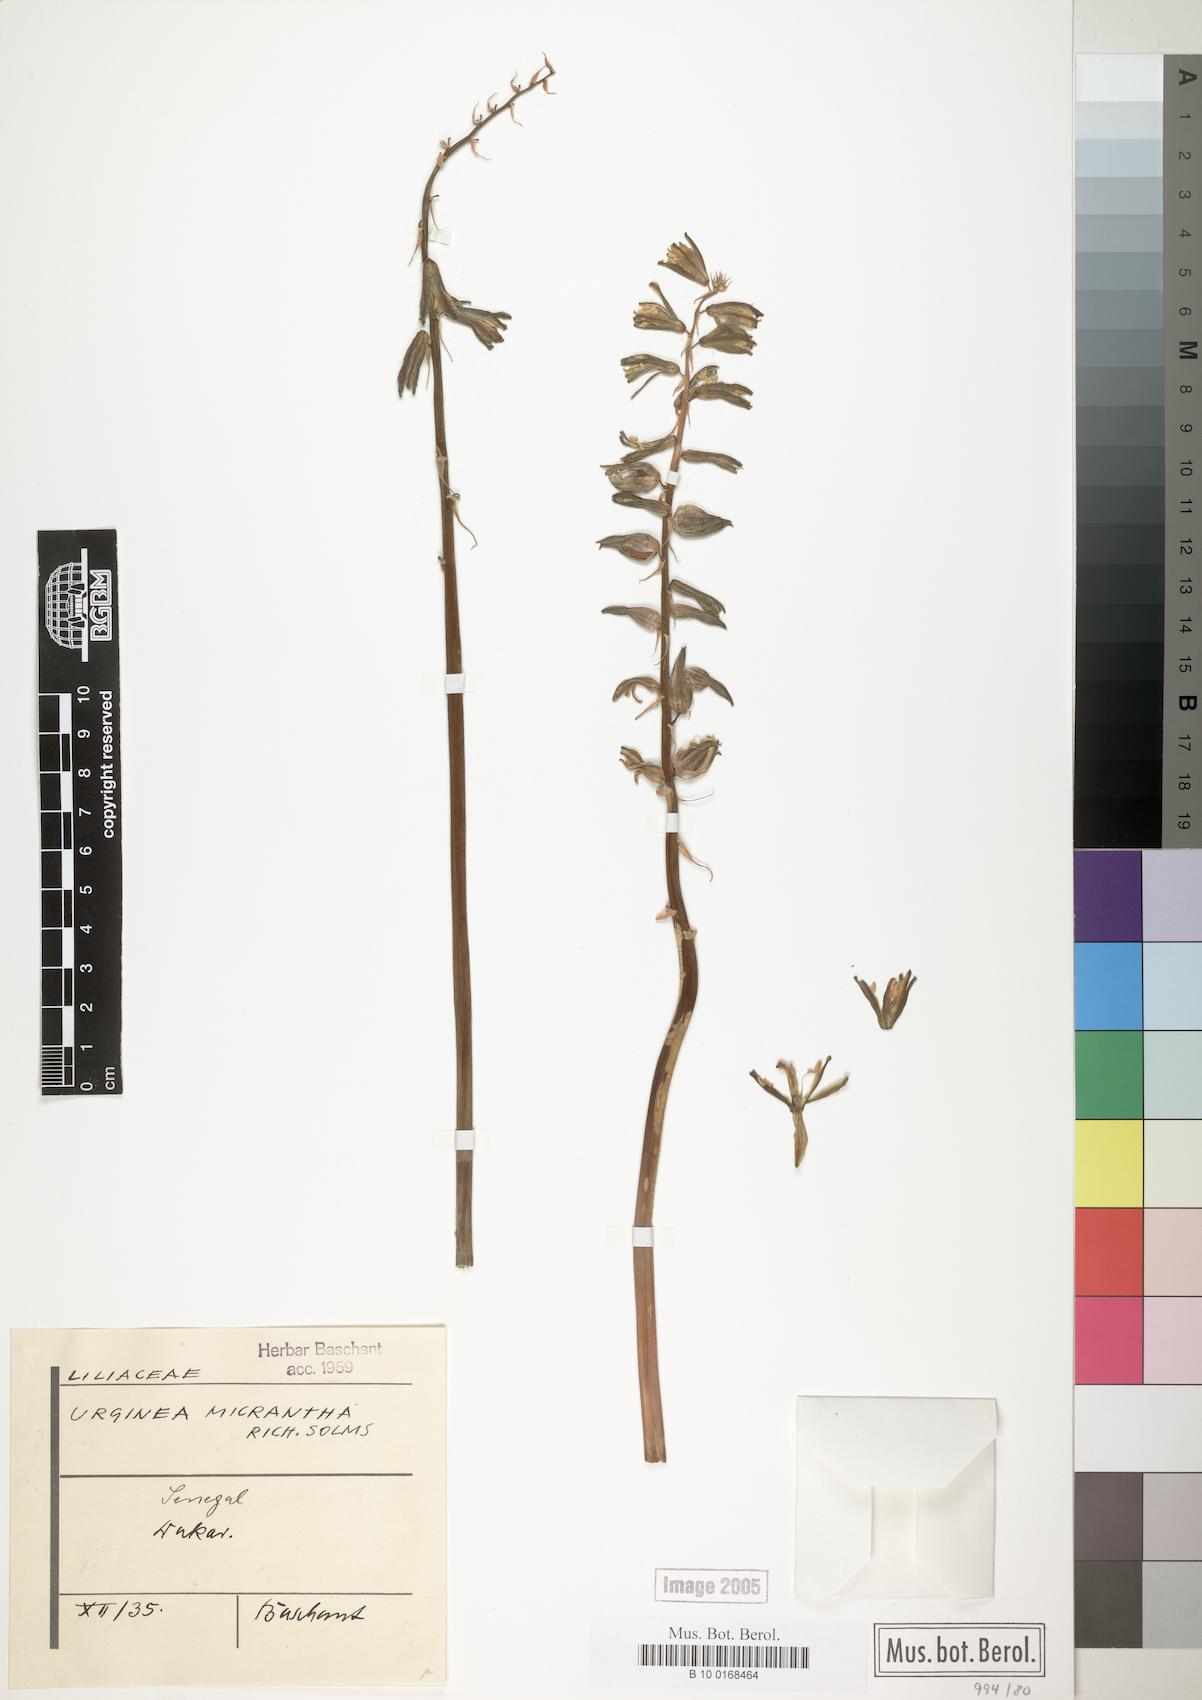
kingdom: Plantae
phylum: Tracheophyta
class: Liliopsida
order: Asparagales
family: Asparagaceae
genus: Drimia
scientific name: Drimia altissima
